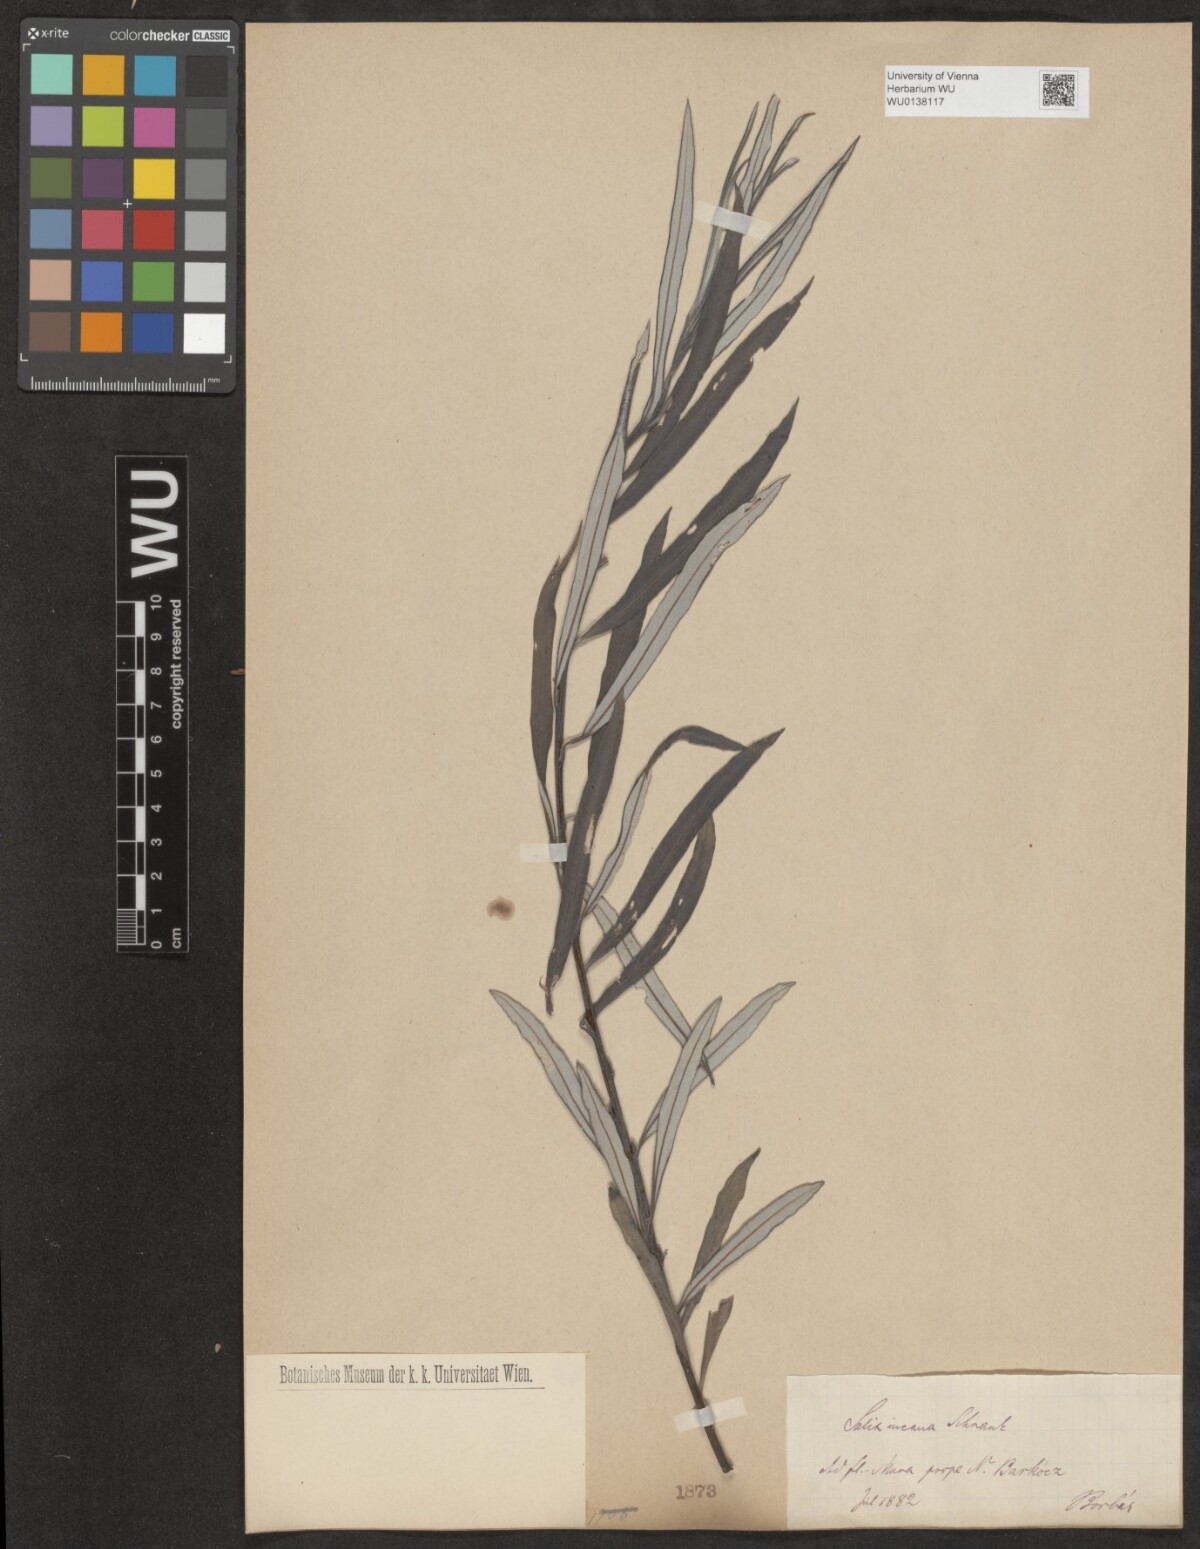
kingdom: Plantae
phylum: Tracheophyta
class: Magnoliopsida
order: Malpighiales
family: Salicaceae
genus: Salix
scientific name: Salix eleagnos
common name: Elaeagnus willow
